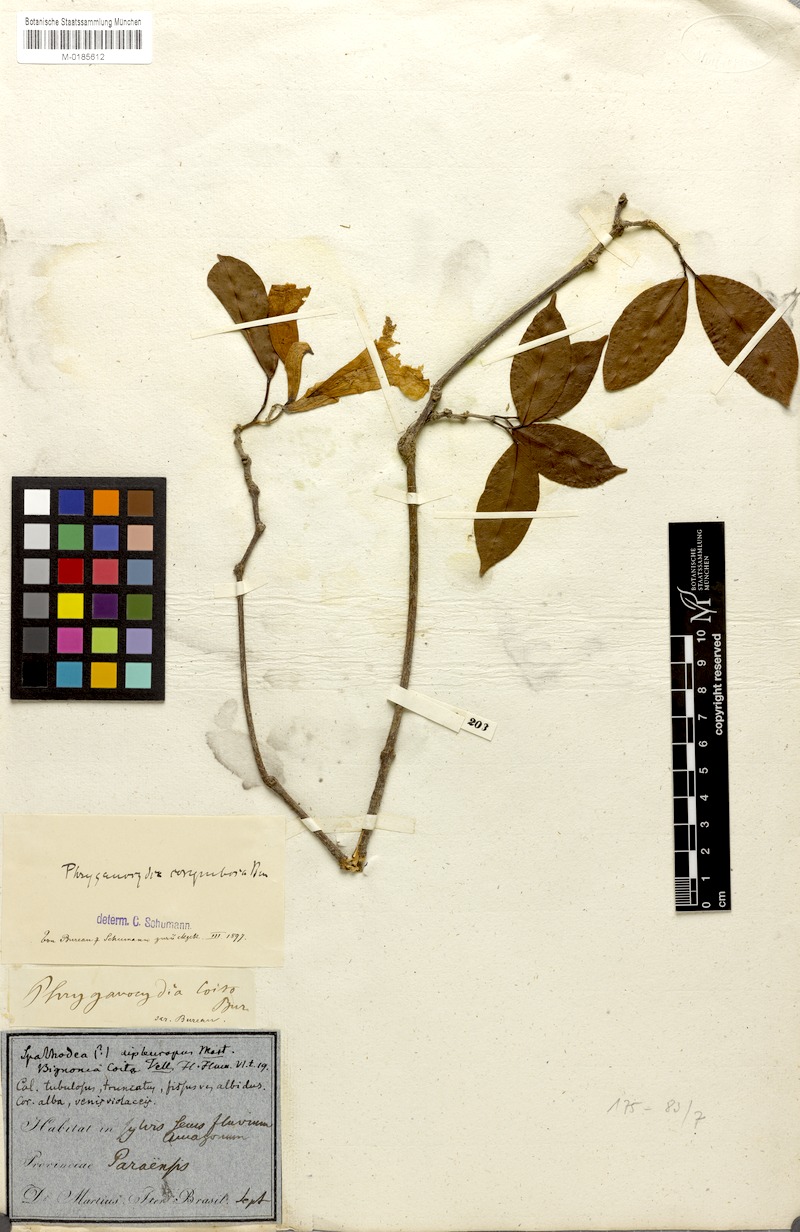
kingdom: Plantae
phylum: Tracheophyta
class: Magnoliopsida
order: Lamiales
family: Bignoniaceae
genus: Bignonia
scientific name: Bignonia corymbosa
